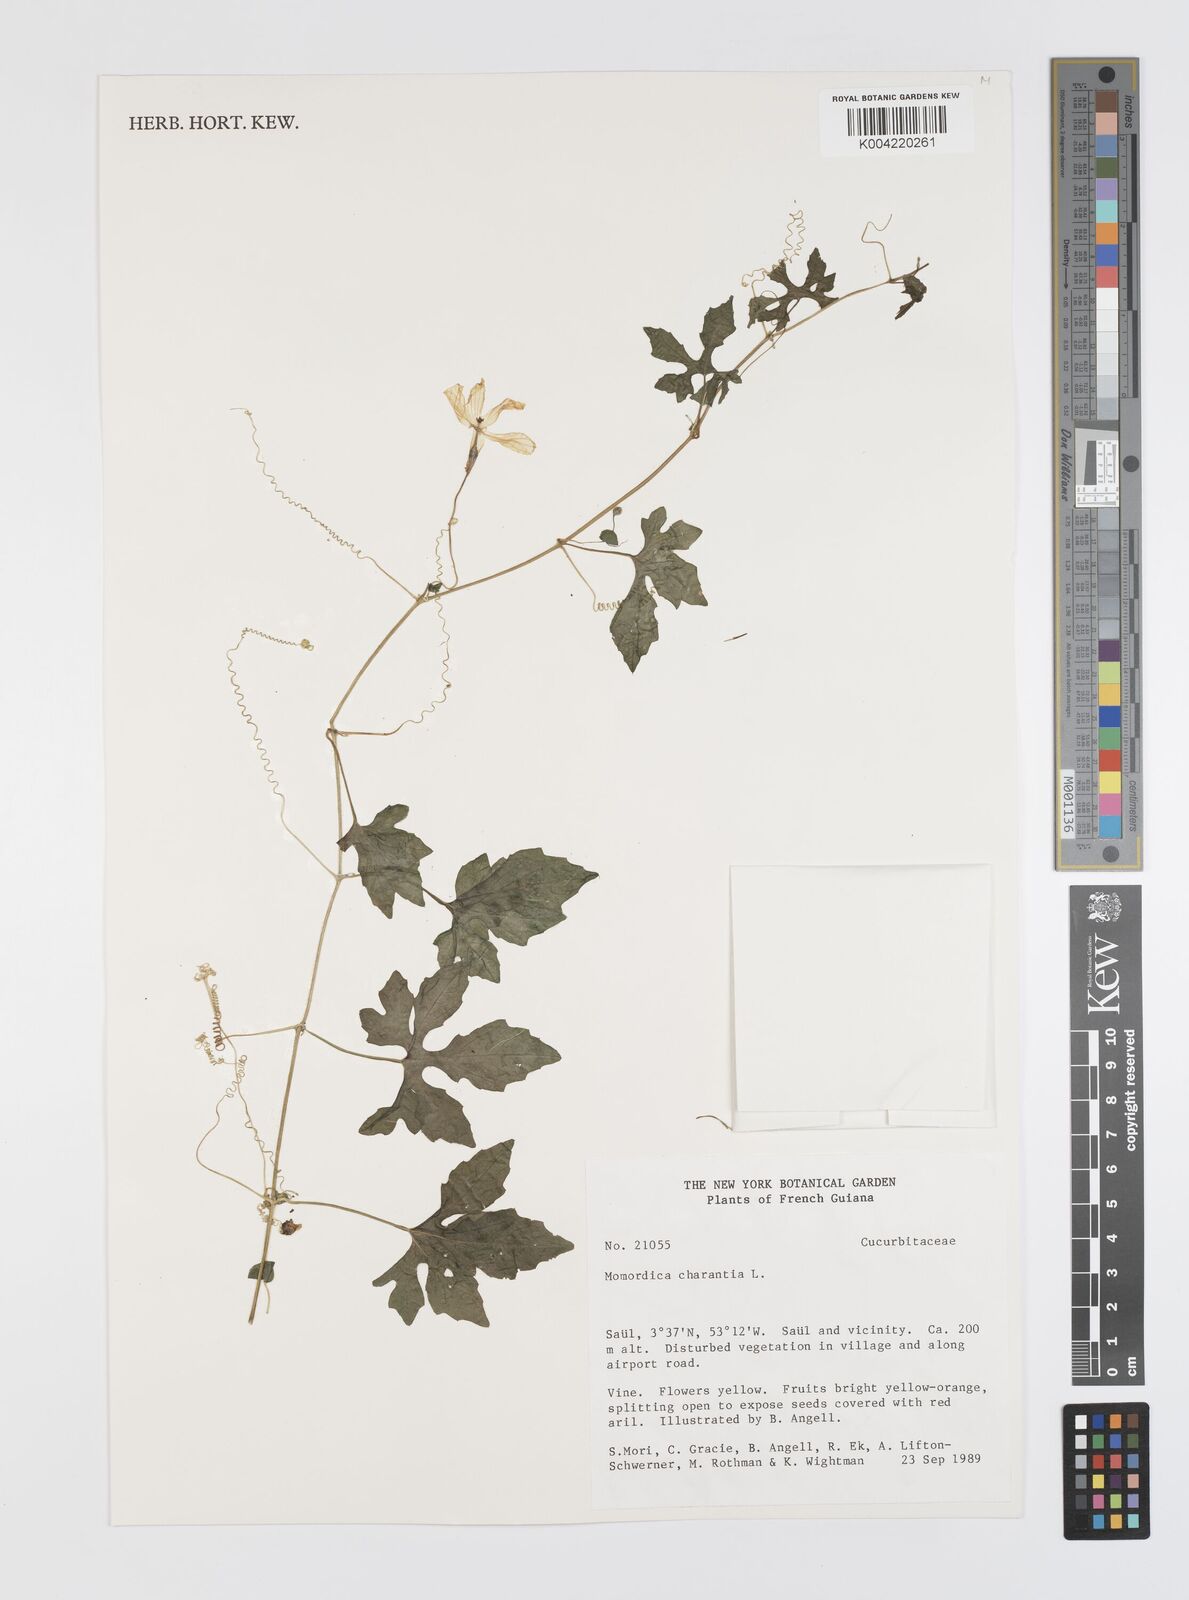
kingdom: Plantae
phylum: Tracheophyta
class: Magnoliopsida
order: Cucurbitales
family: Cucurbitaceae
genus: Momordica
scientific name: Momordica charantia
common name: Balsampear
